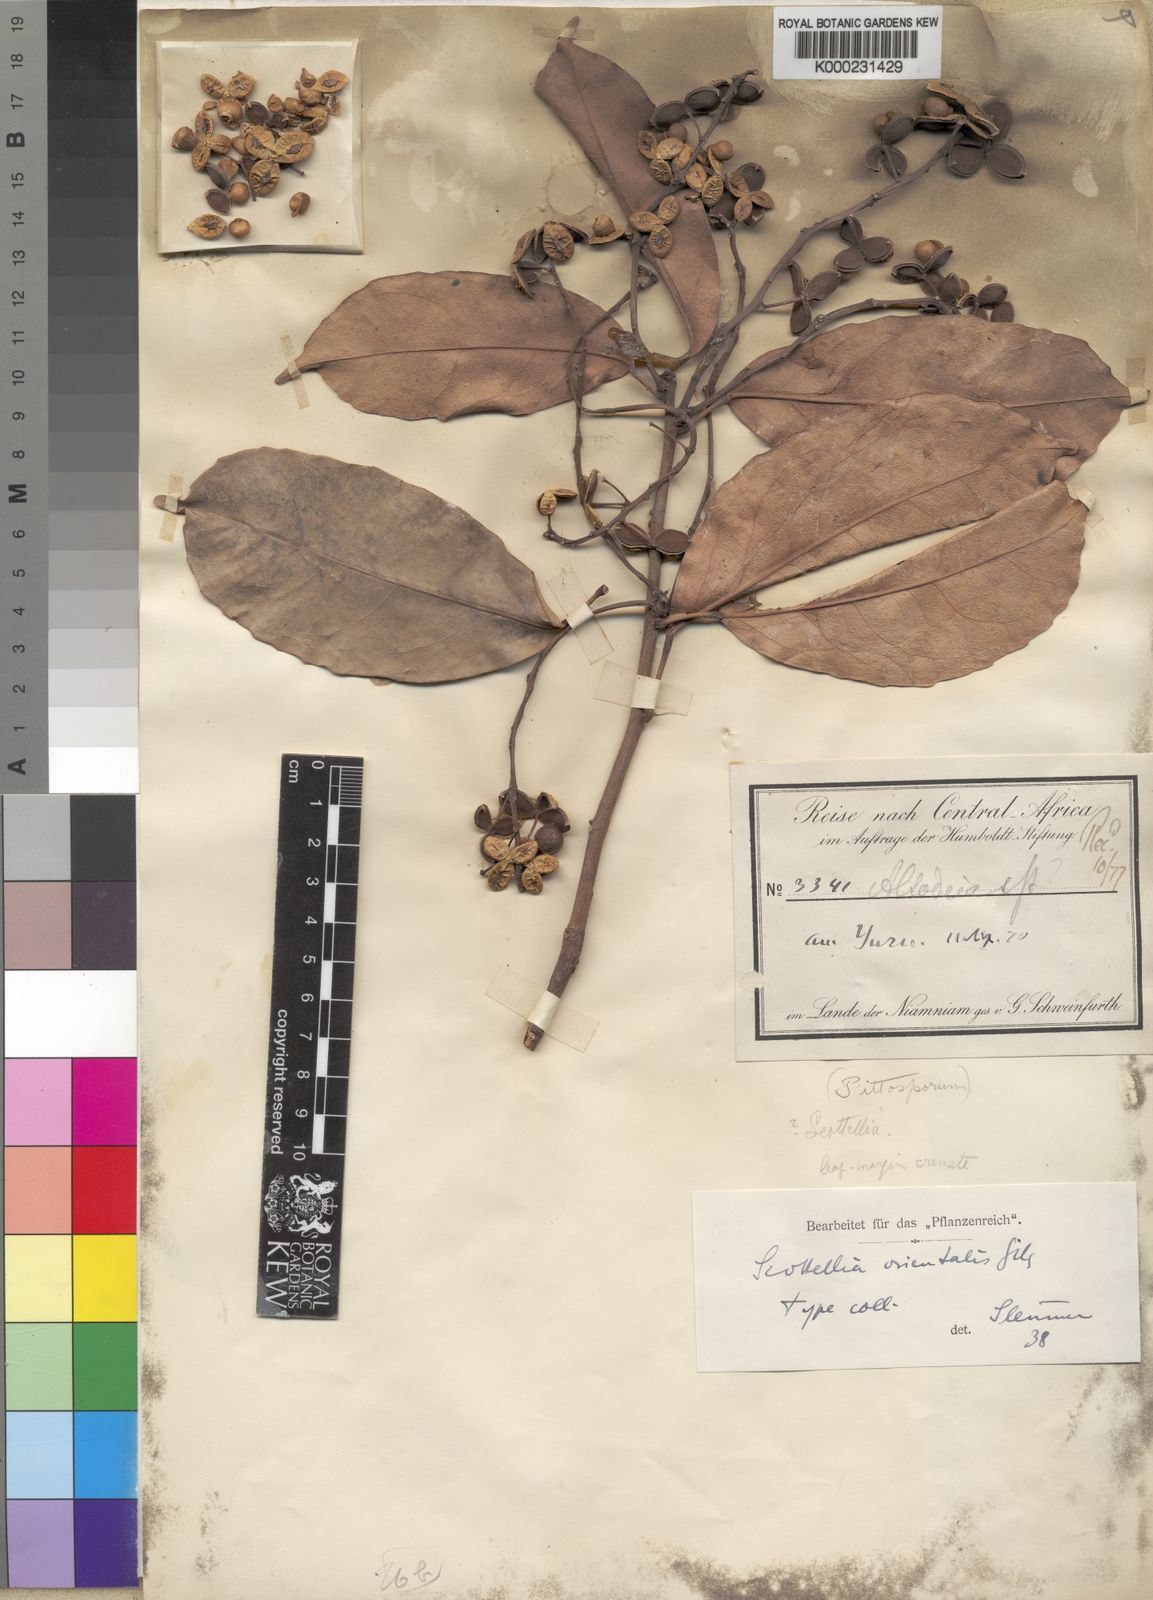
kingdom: Plantae
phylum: Tracheophyta
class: Magnoliopsida
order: Malpighiales
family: Achariaceae
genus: Scottellia
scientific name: Scottellia orientalis
